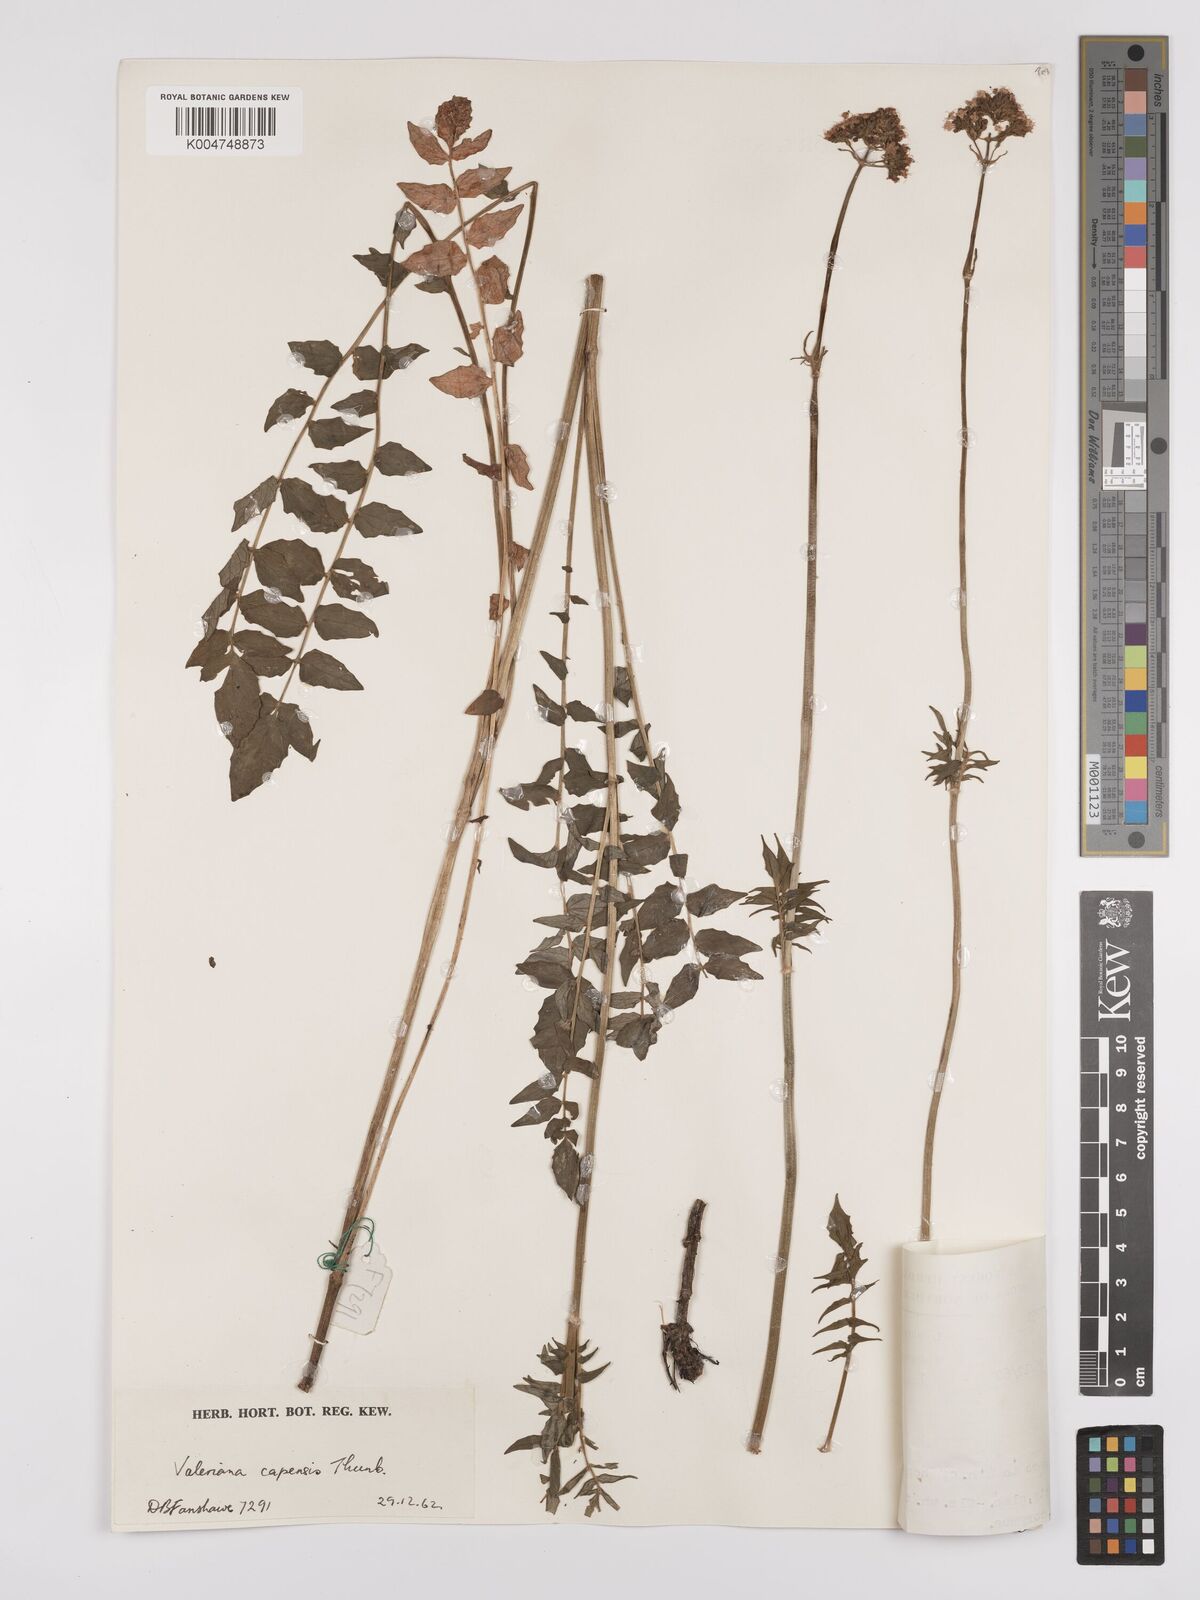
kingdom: Plantae
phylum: Tracheophyta
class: Magnoliopsida
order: Dipsacales
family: Caprifoliaceae
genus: Valeriana
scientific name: Valeriana capensis
